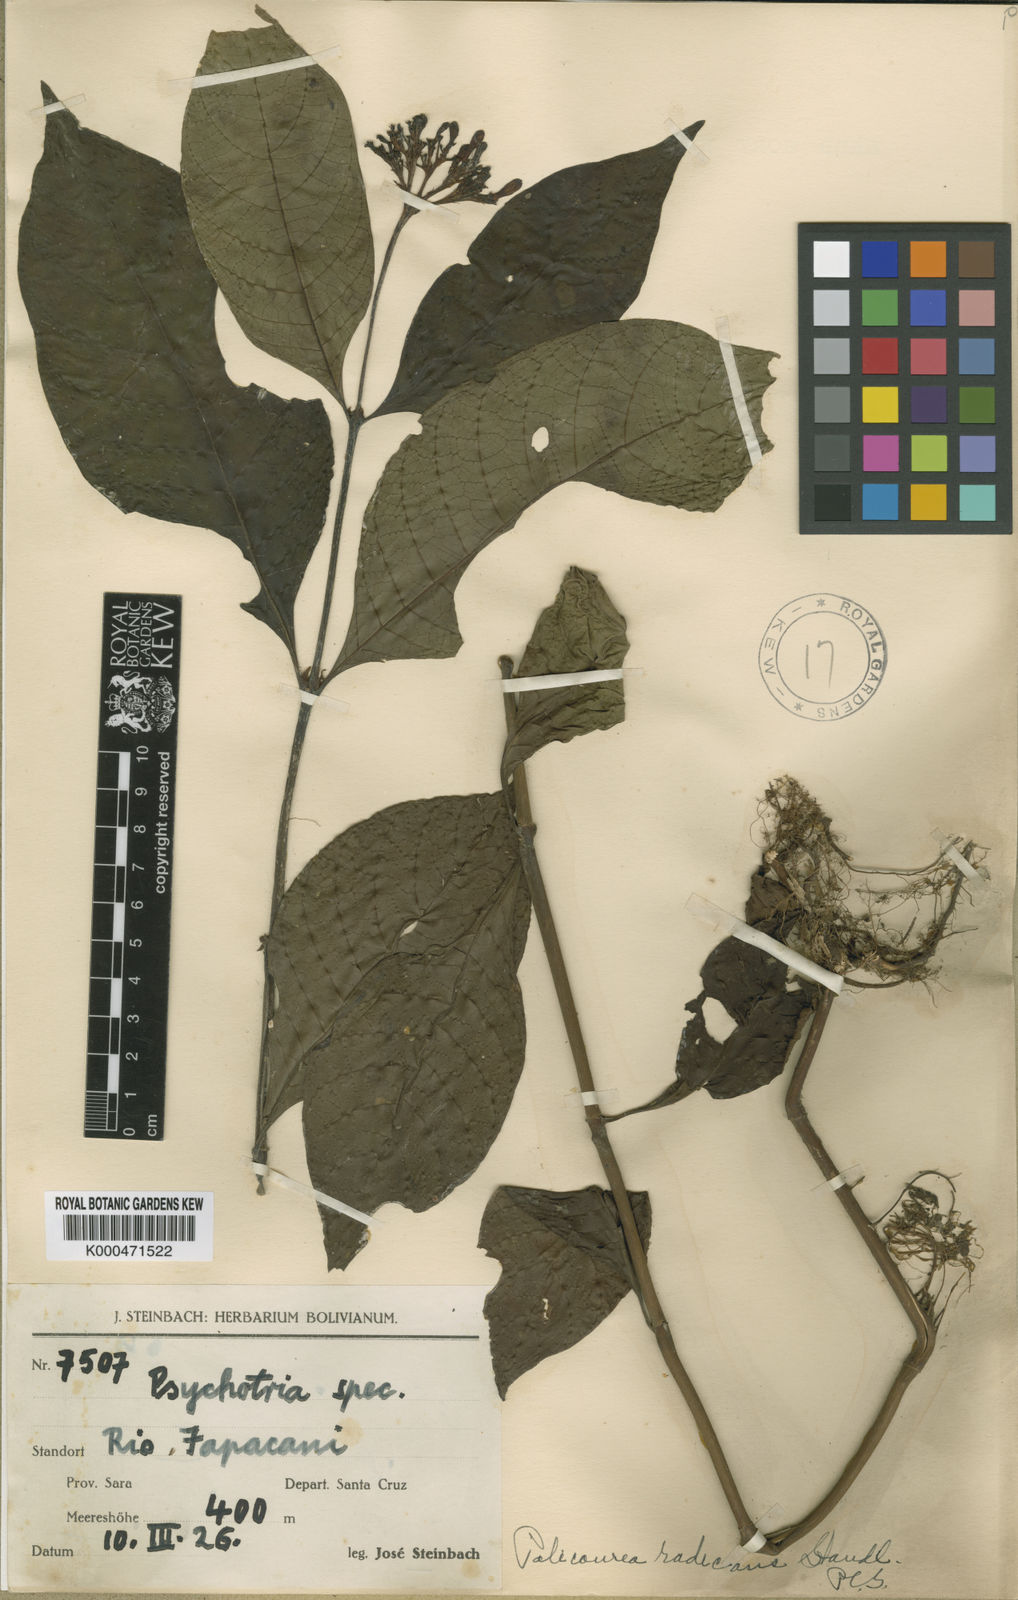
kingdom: Plantae
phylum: Tracheophyta
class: Magnoliopsida
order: Gentianales
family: Rubiaceae
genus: Palicourea
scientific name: Palicourea croceoides
